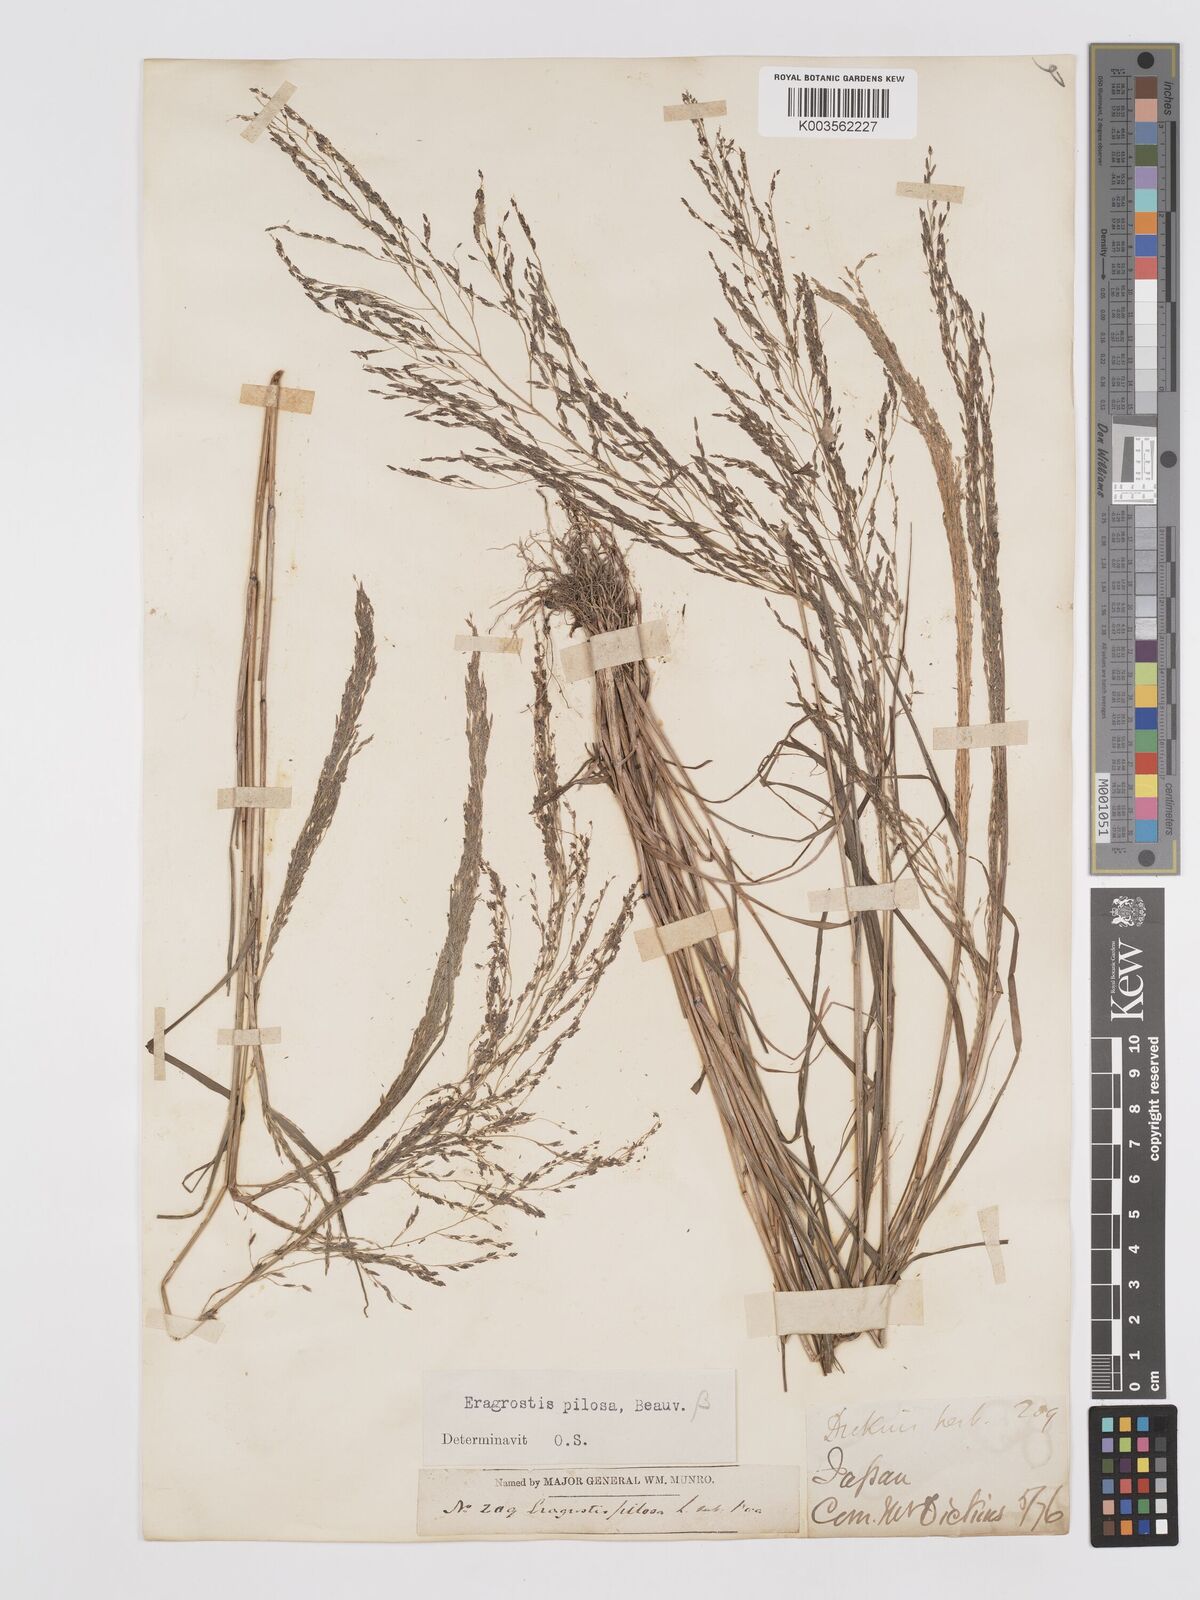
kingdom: Plantae
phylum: Tracheophyta
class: Liliopsida
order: Poales
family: Poaceae
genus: Eragrostis
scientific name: Eragrostis pilosa
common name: Indian lovegrass
